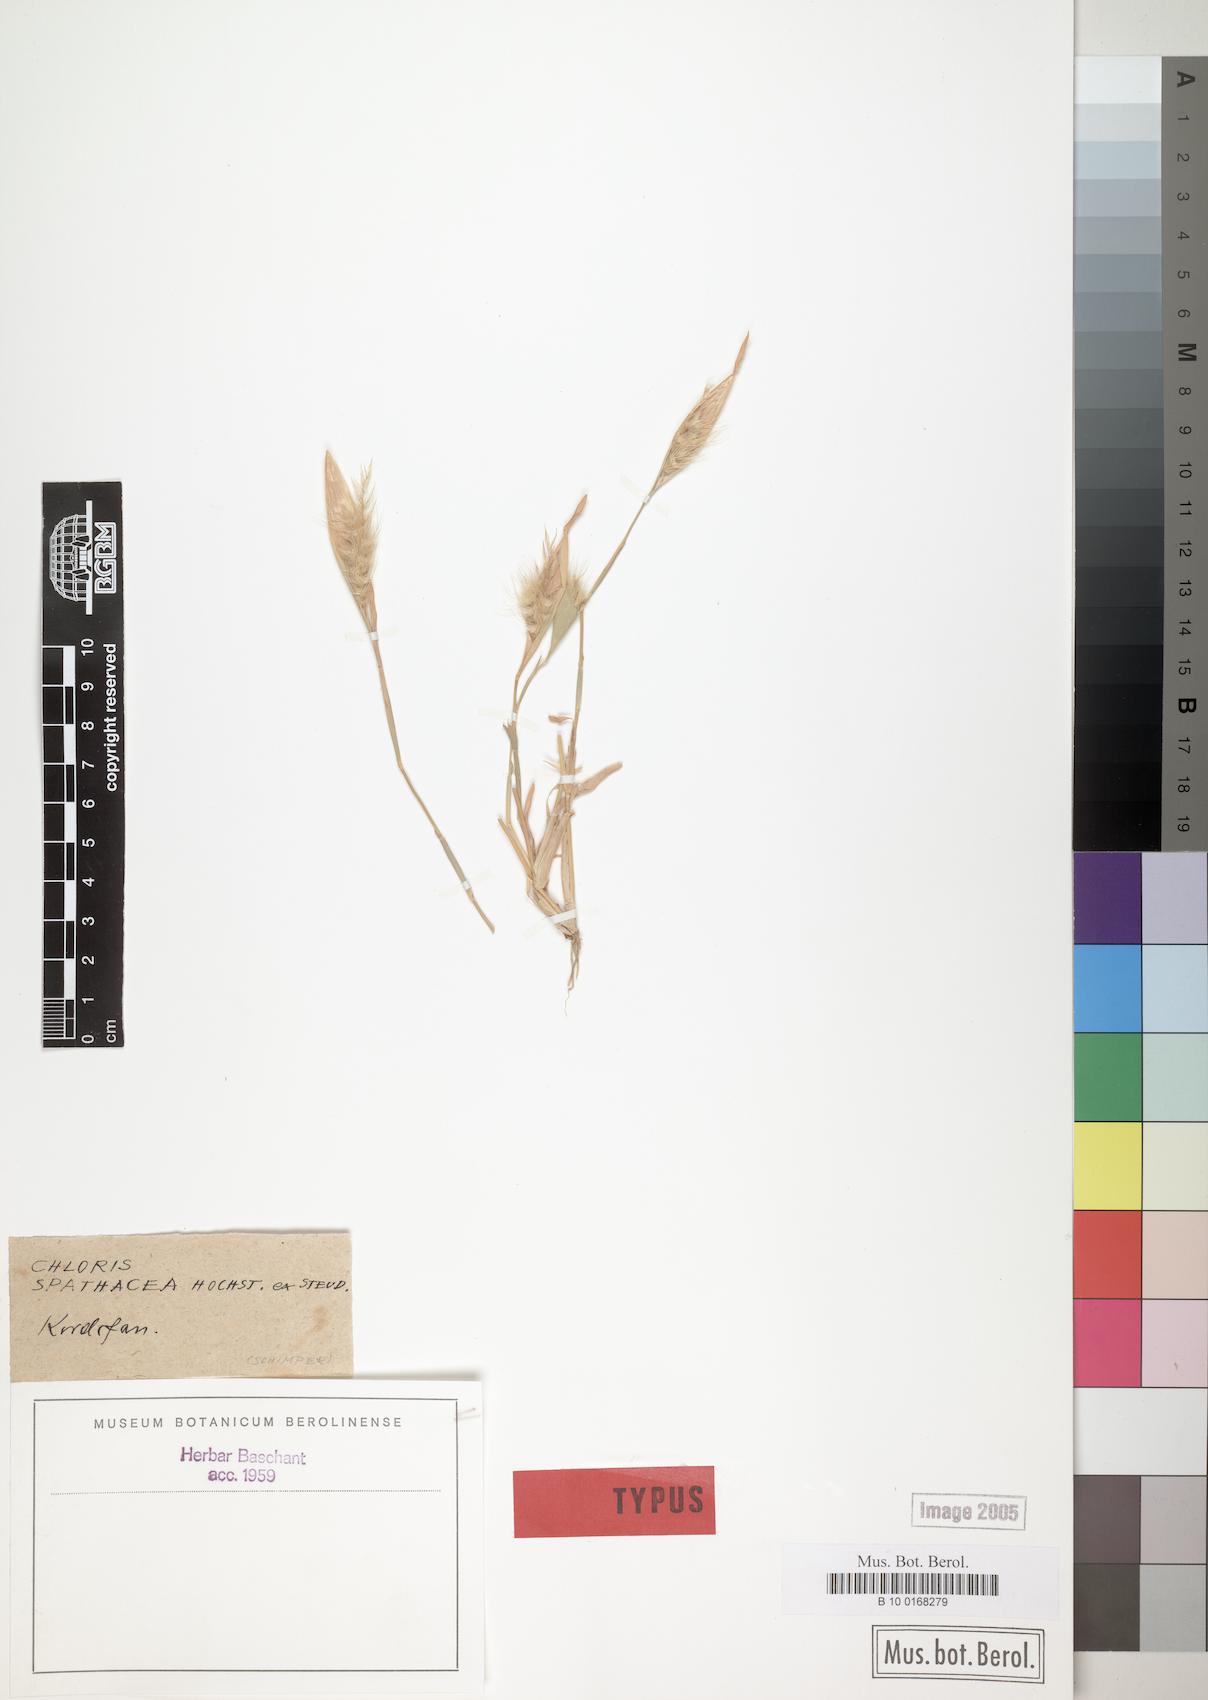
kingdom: Plantae
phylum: Tracheophyta
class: Liliopsida
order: Poales
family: Poaceae
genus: Tetrapogon
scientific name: Tetrapogon cenchriformis
